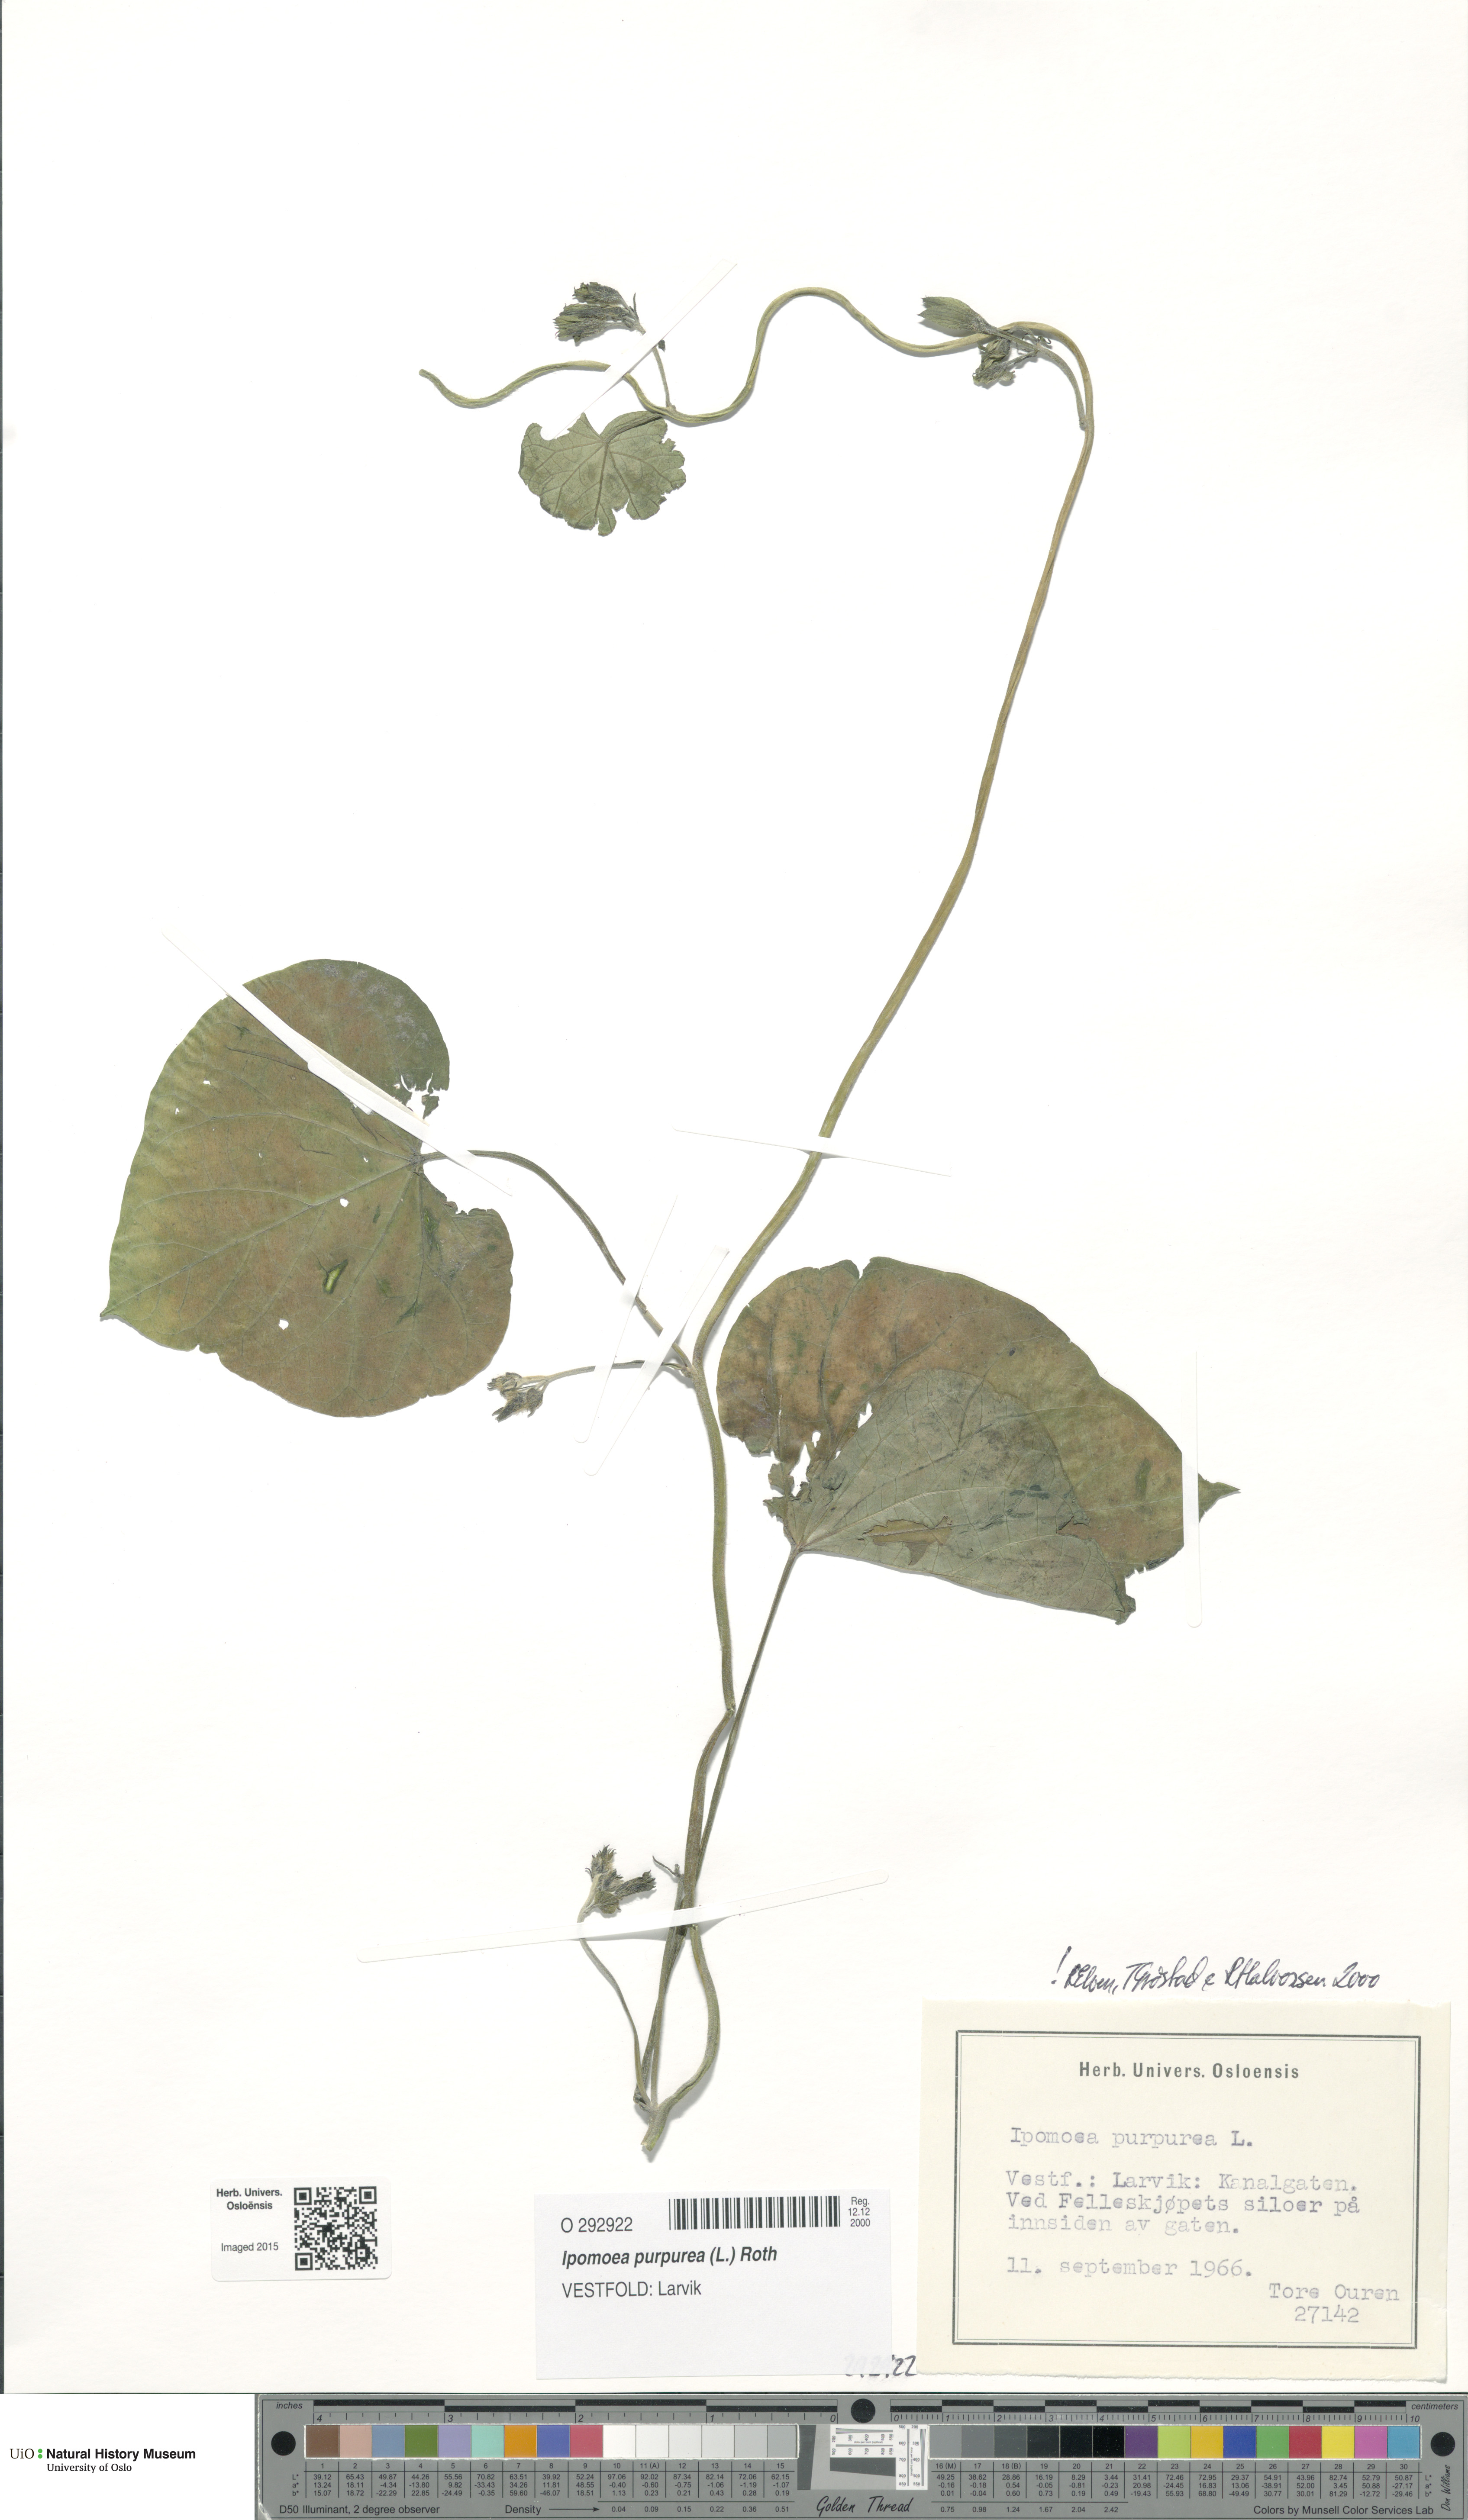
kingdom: Plantae
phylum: Tracheophyta
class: Magnoliopsida
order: Solanales
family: Convolvulaceae
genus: Ipomoea
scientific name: Ipomoea purpurea
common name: Common morning-glory
